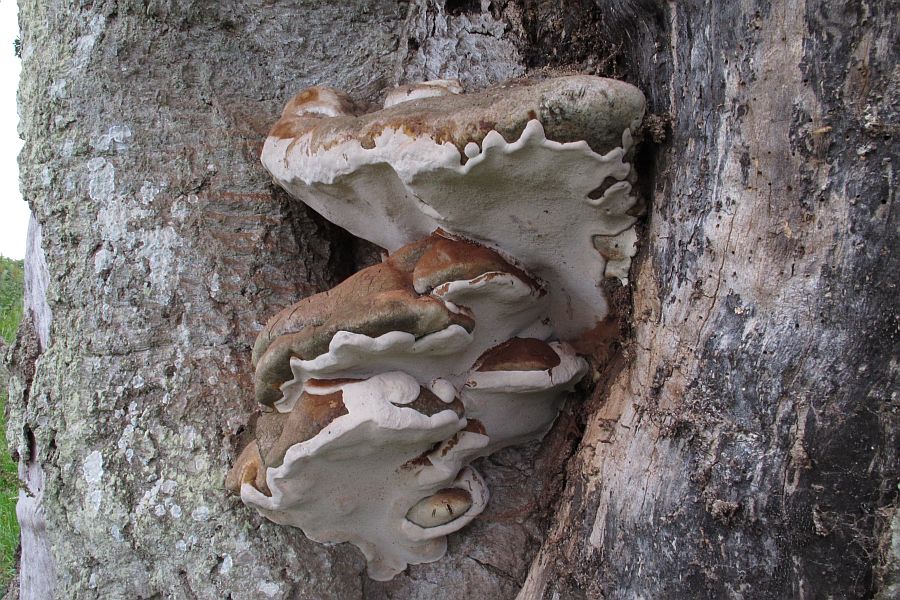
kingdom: Fungi
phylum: Basidiomycota
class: Agaricomycetes
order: Polyporales
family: Polyporaceae
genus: Ganoderma
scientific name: Ganoderma adspersum
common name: grov lakporesvamp
